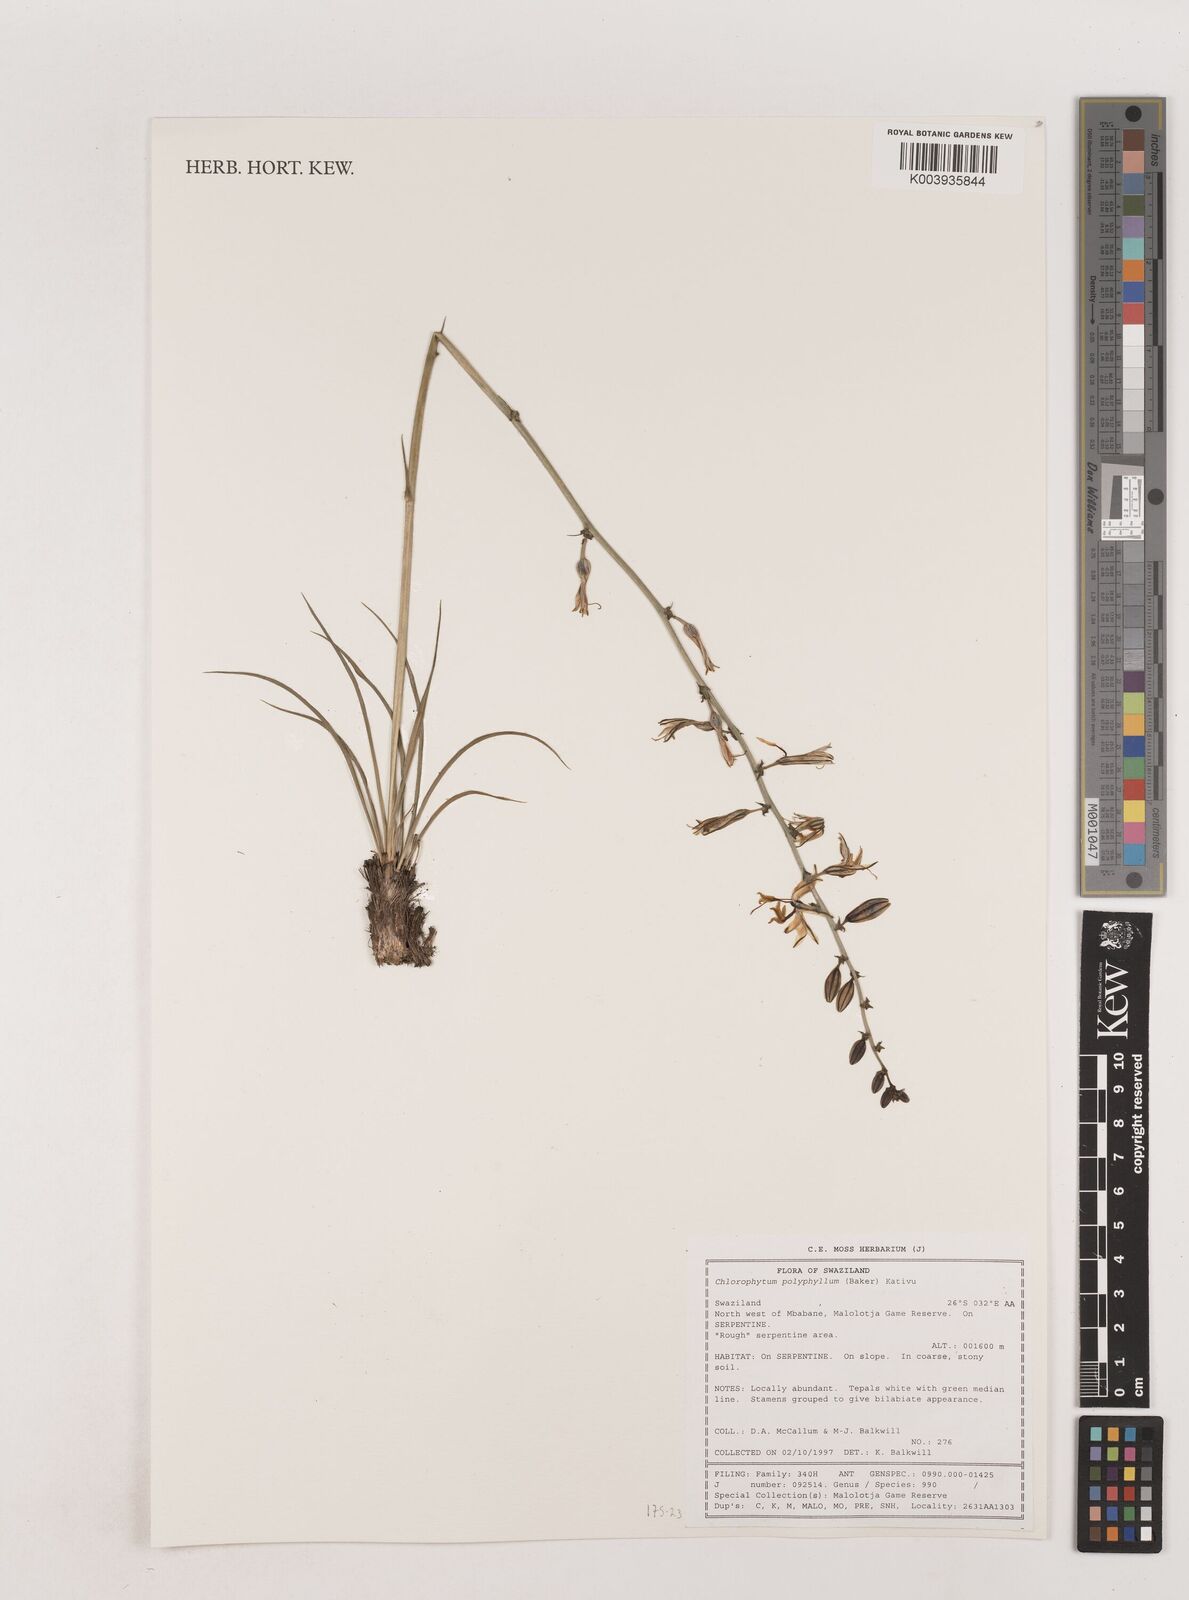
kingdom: Plantae
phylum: Tracheophyta
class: Liliopsida
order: Asparagales
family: Asparagaceae
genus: Chlorophytum
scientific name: Chlorophytum recurvifolium
